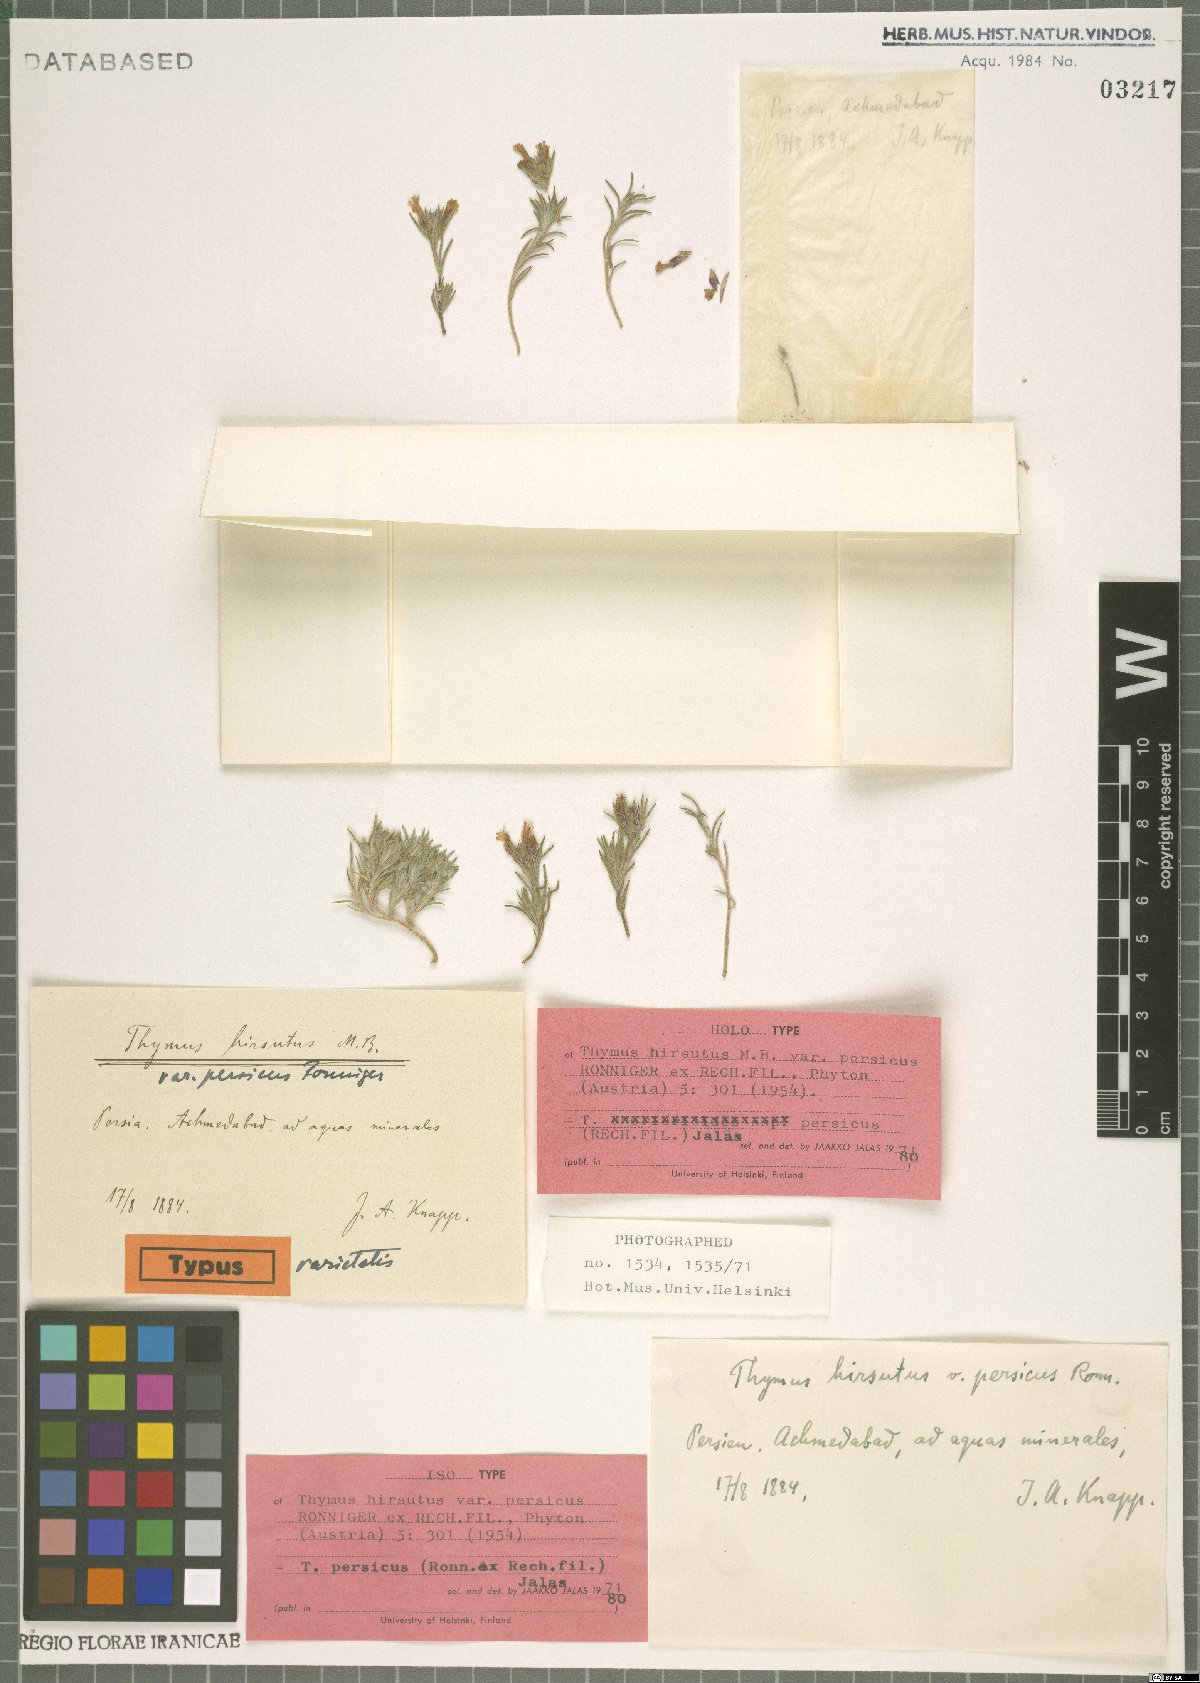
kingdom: Plantae
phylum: Tracheophyta
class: Magnoliopsida
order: Lamiales
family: Lamiaceae
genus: Thymus
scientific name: Thymus persicus
